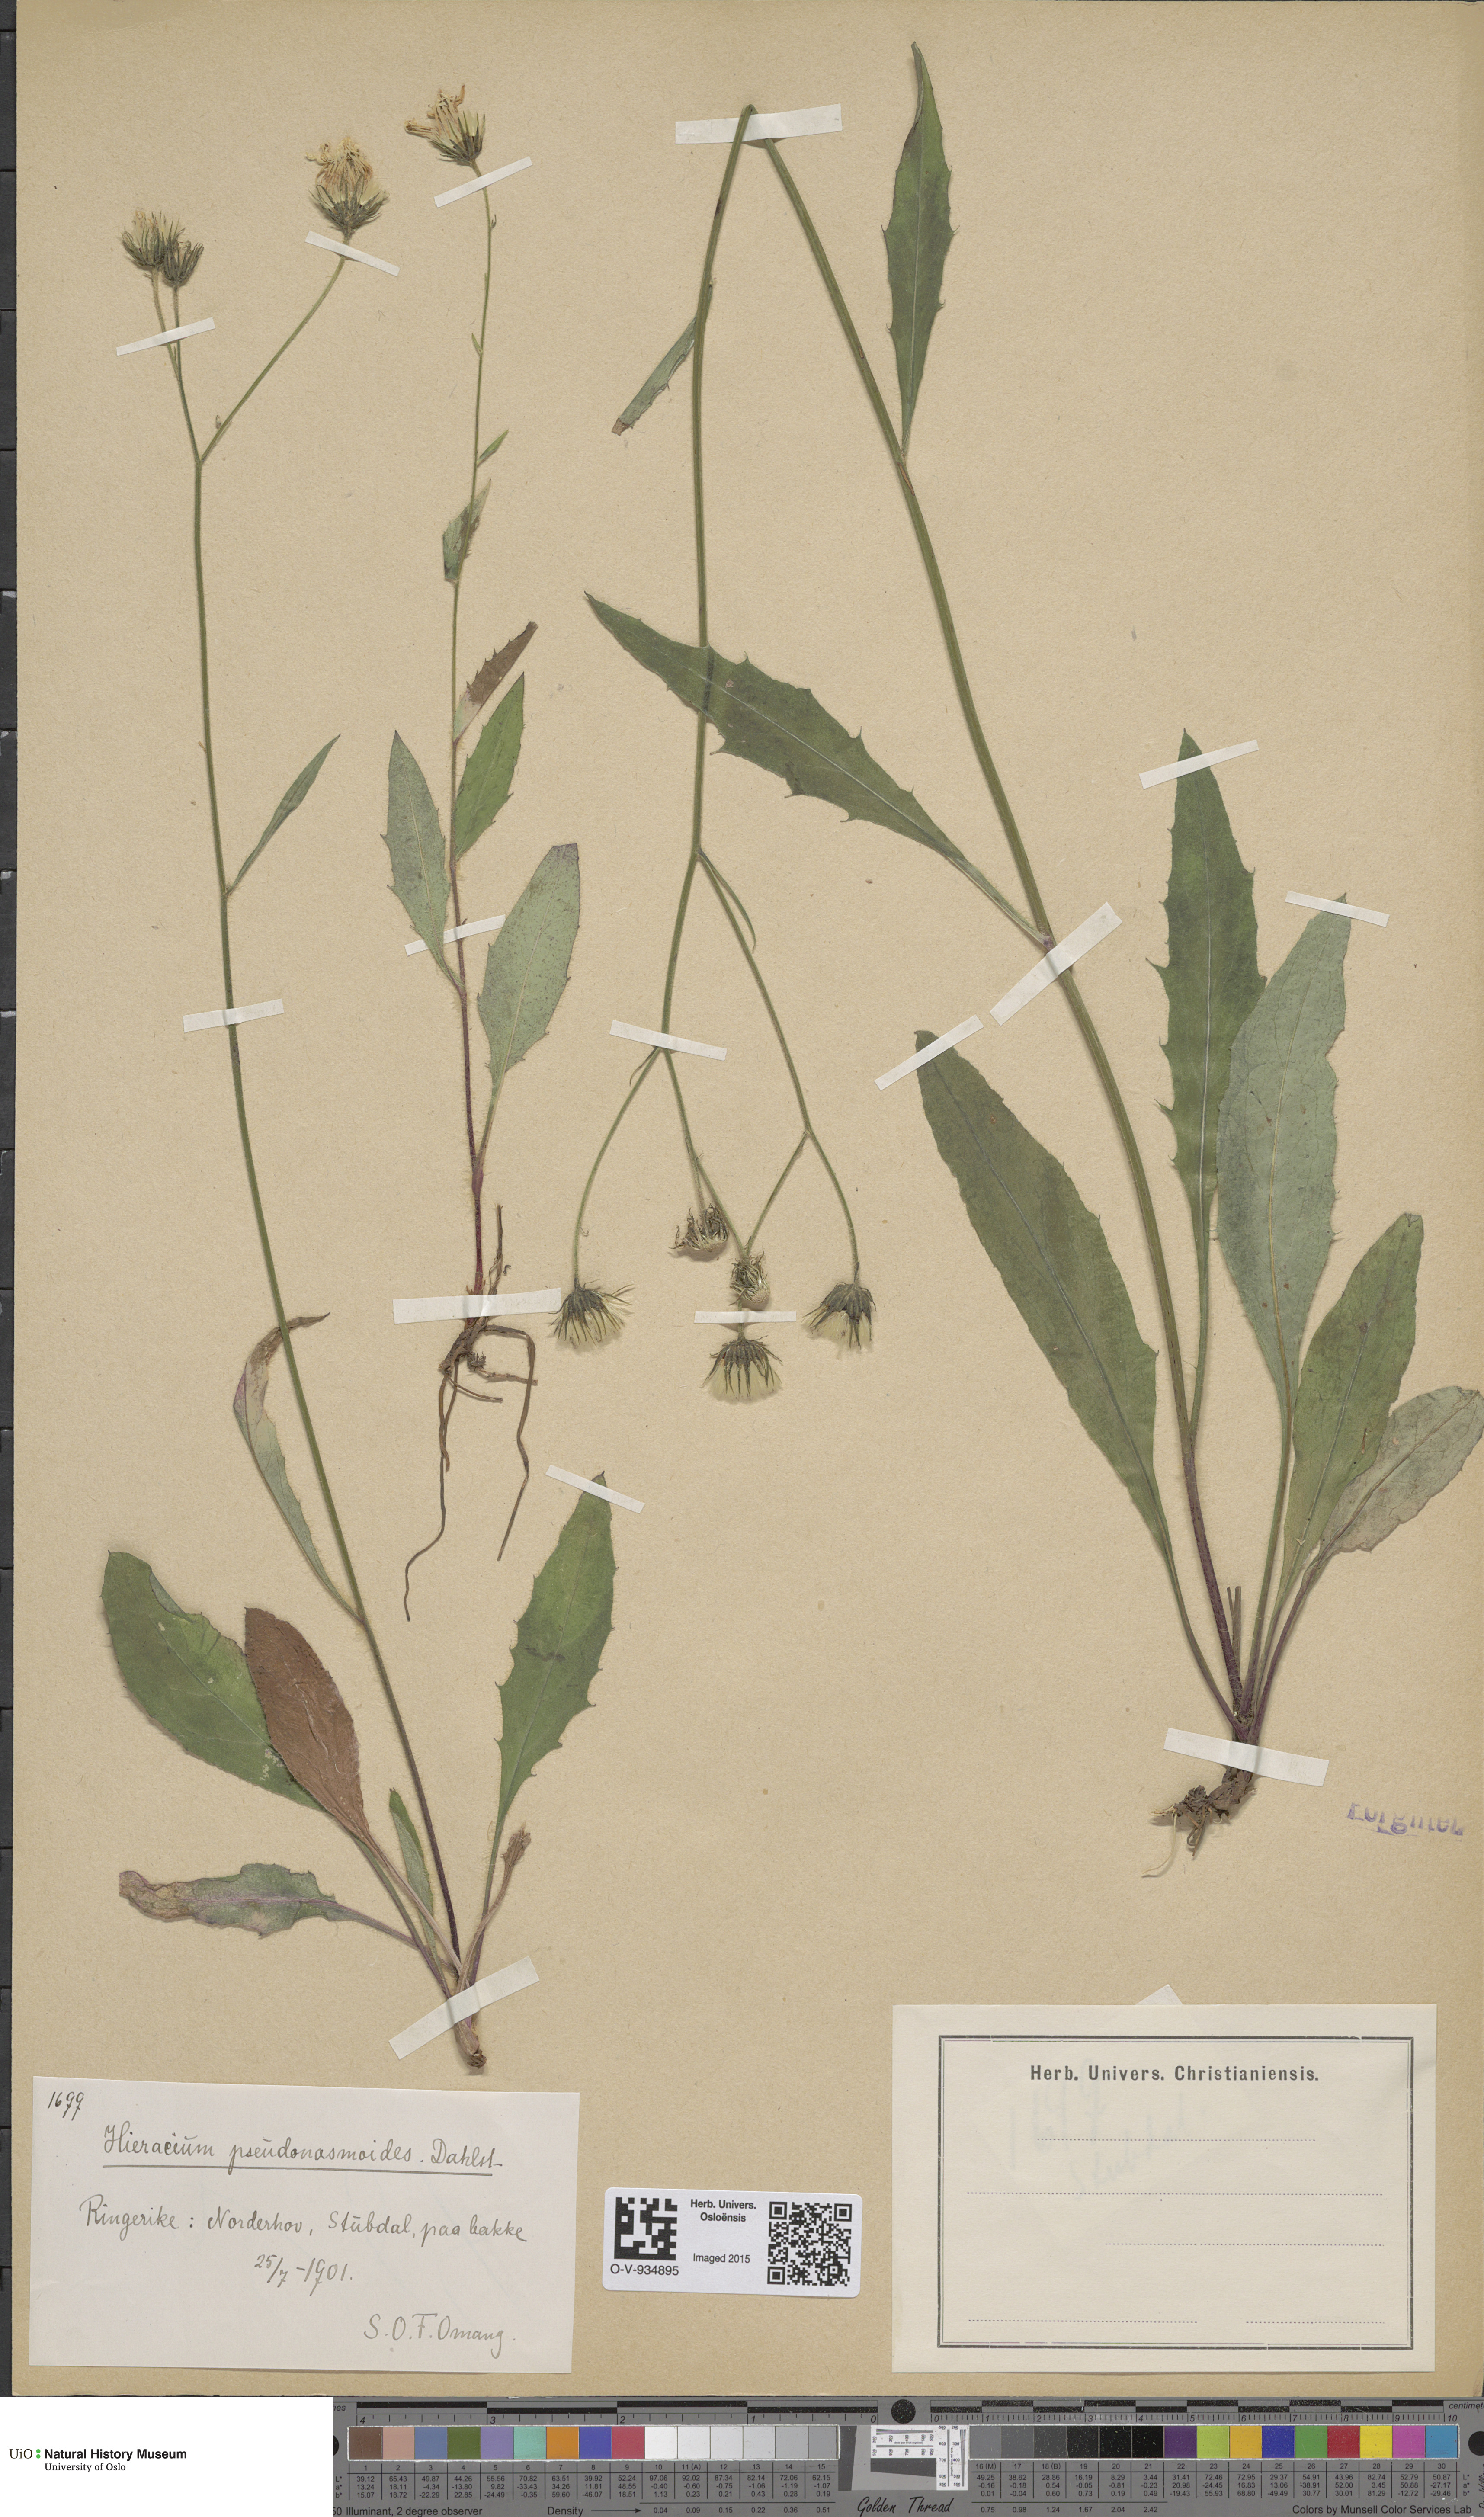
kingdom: Plantae
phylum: Tracheophyta
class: Magnoliopsida
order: Asterales
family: Asteraceae
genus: Hieracium
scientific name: Hieracium saxifragum
